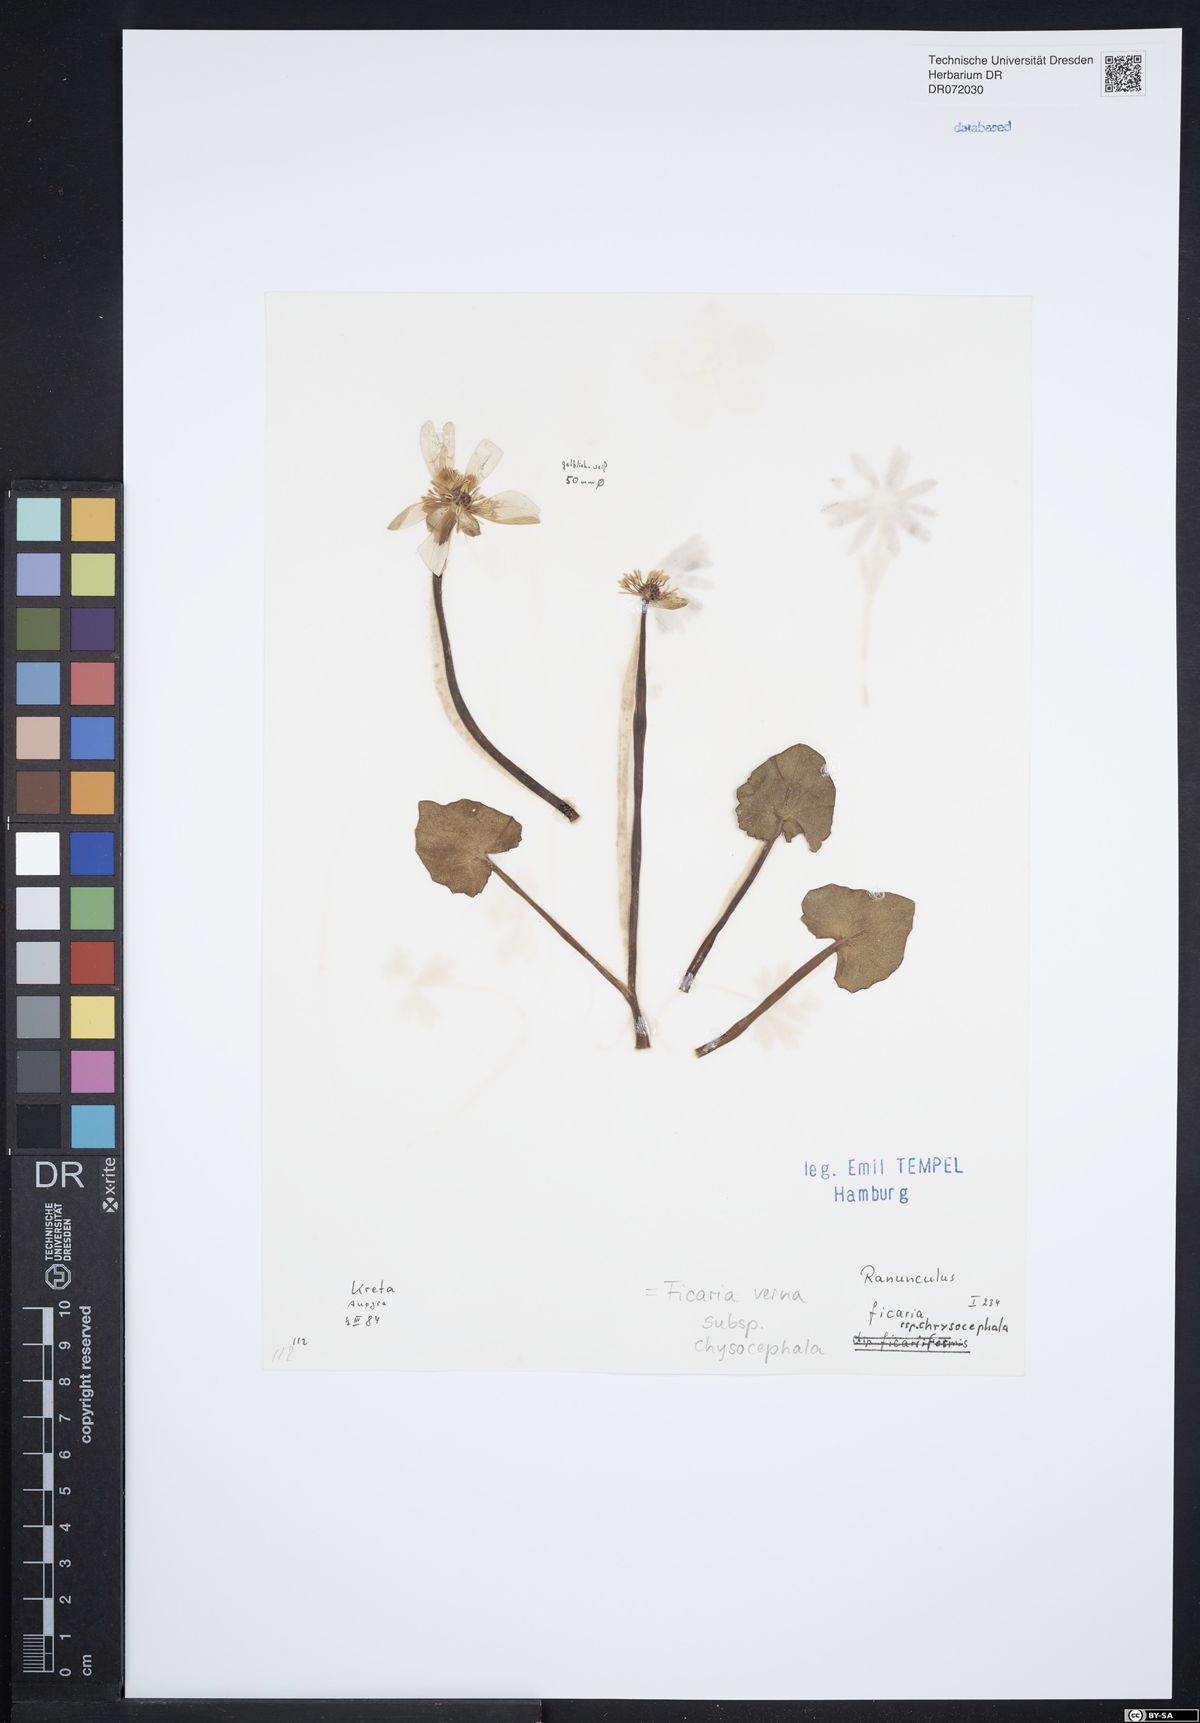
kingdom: Plantae
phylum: Tracheophyta
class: Magnoliopsida
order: Ranunculales
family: Ranunculaceae
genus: Ficaria
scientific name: Ficaria chrysocephala
